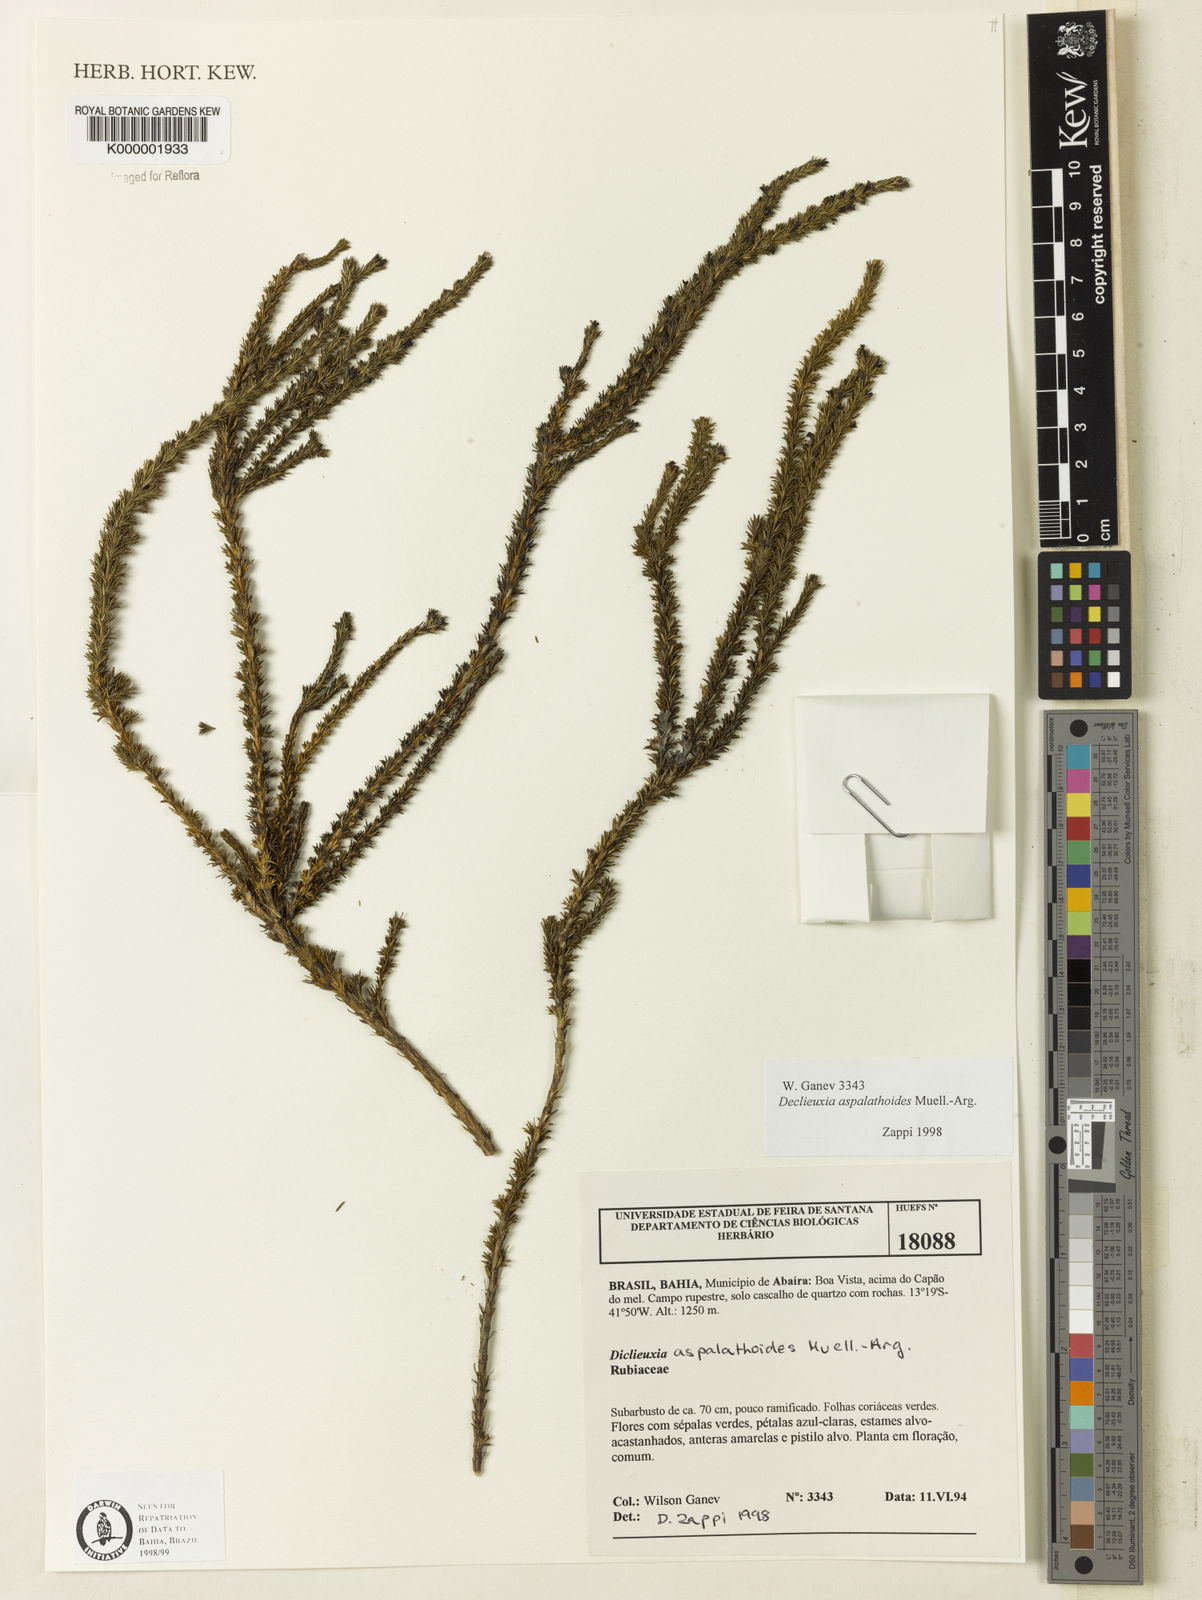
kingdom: Plantae
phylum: Tracheophyta
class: Magnoliopsida
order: Gentianales
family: Rubiaceae
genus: Declieuxia
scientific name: Declieuxia aspalathoides
